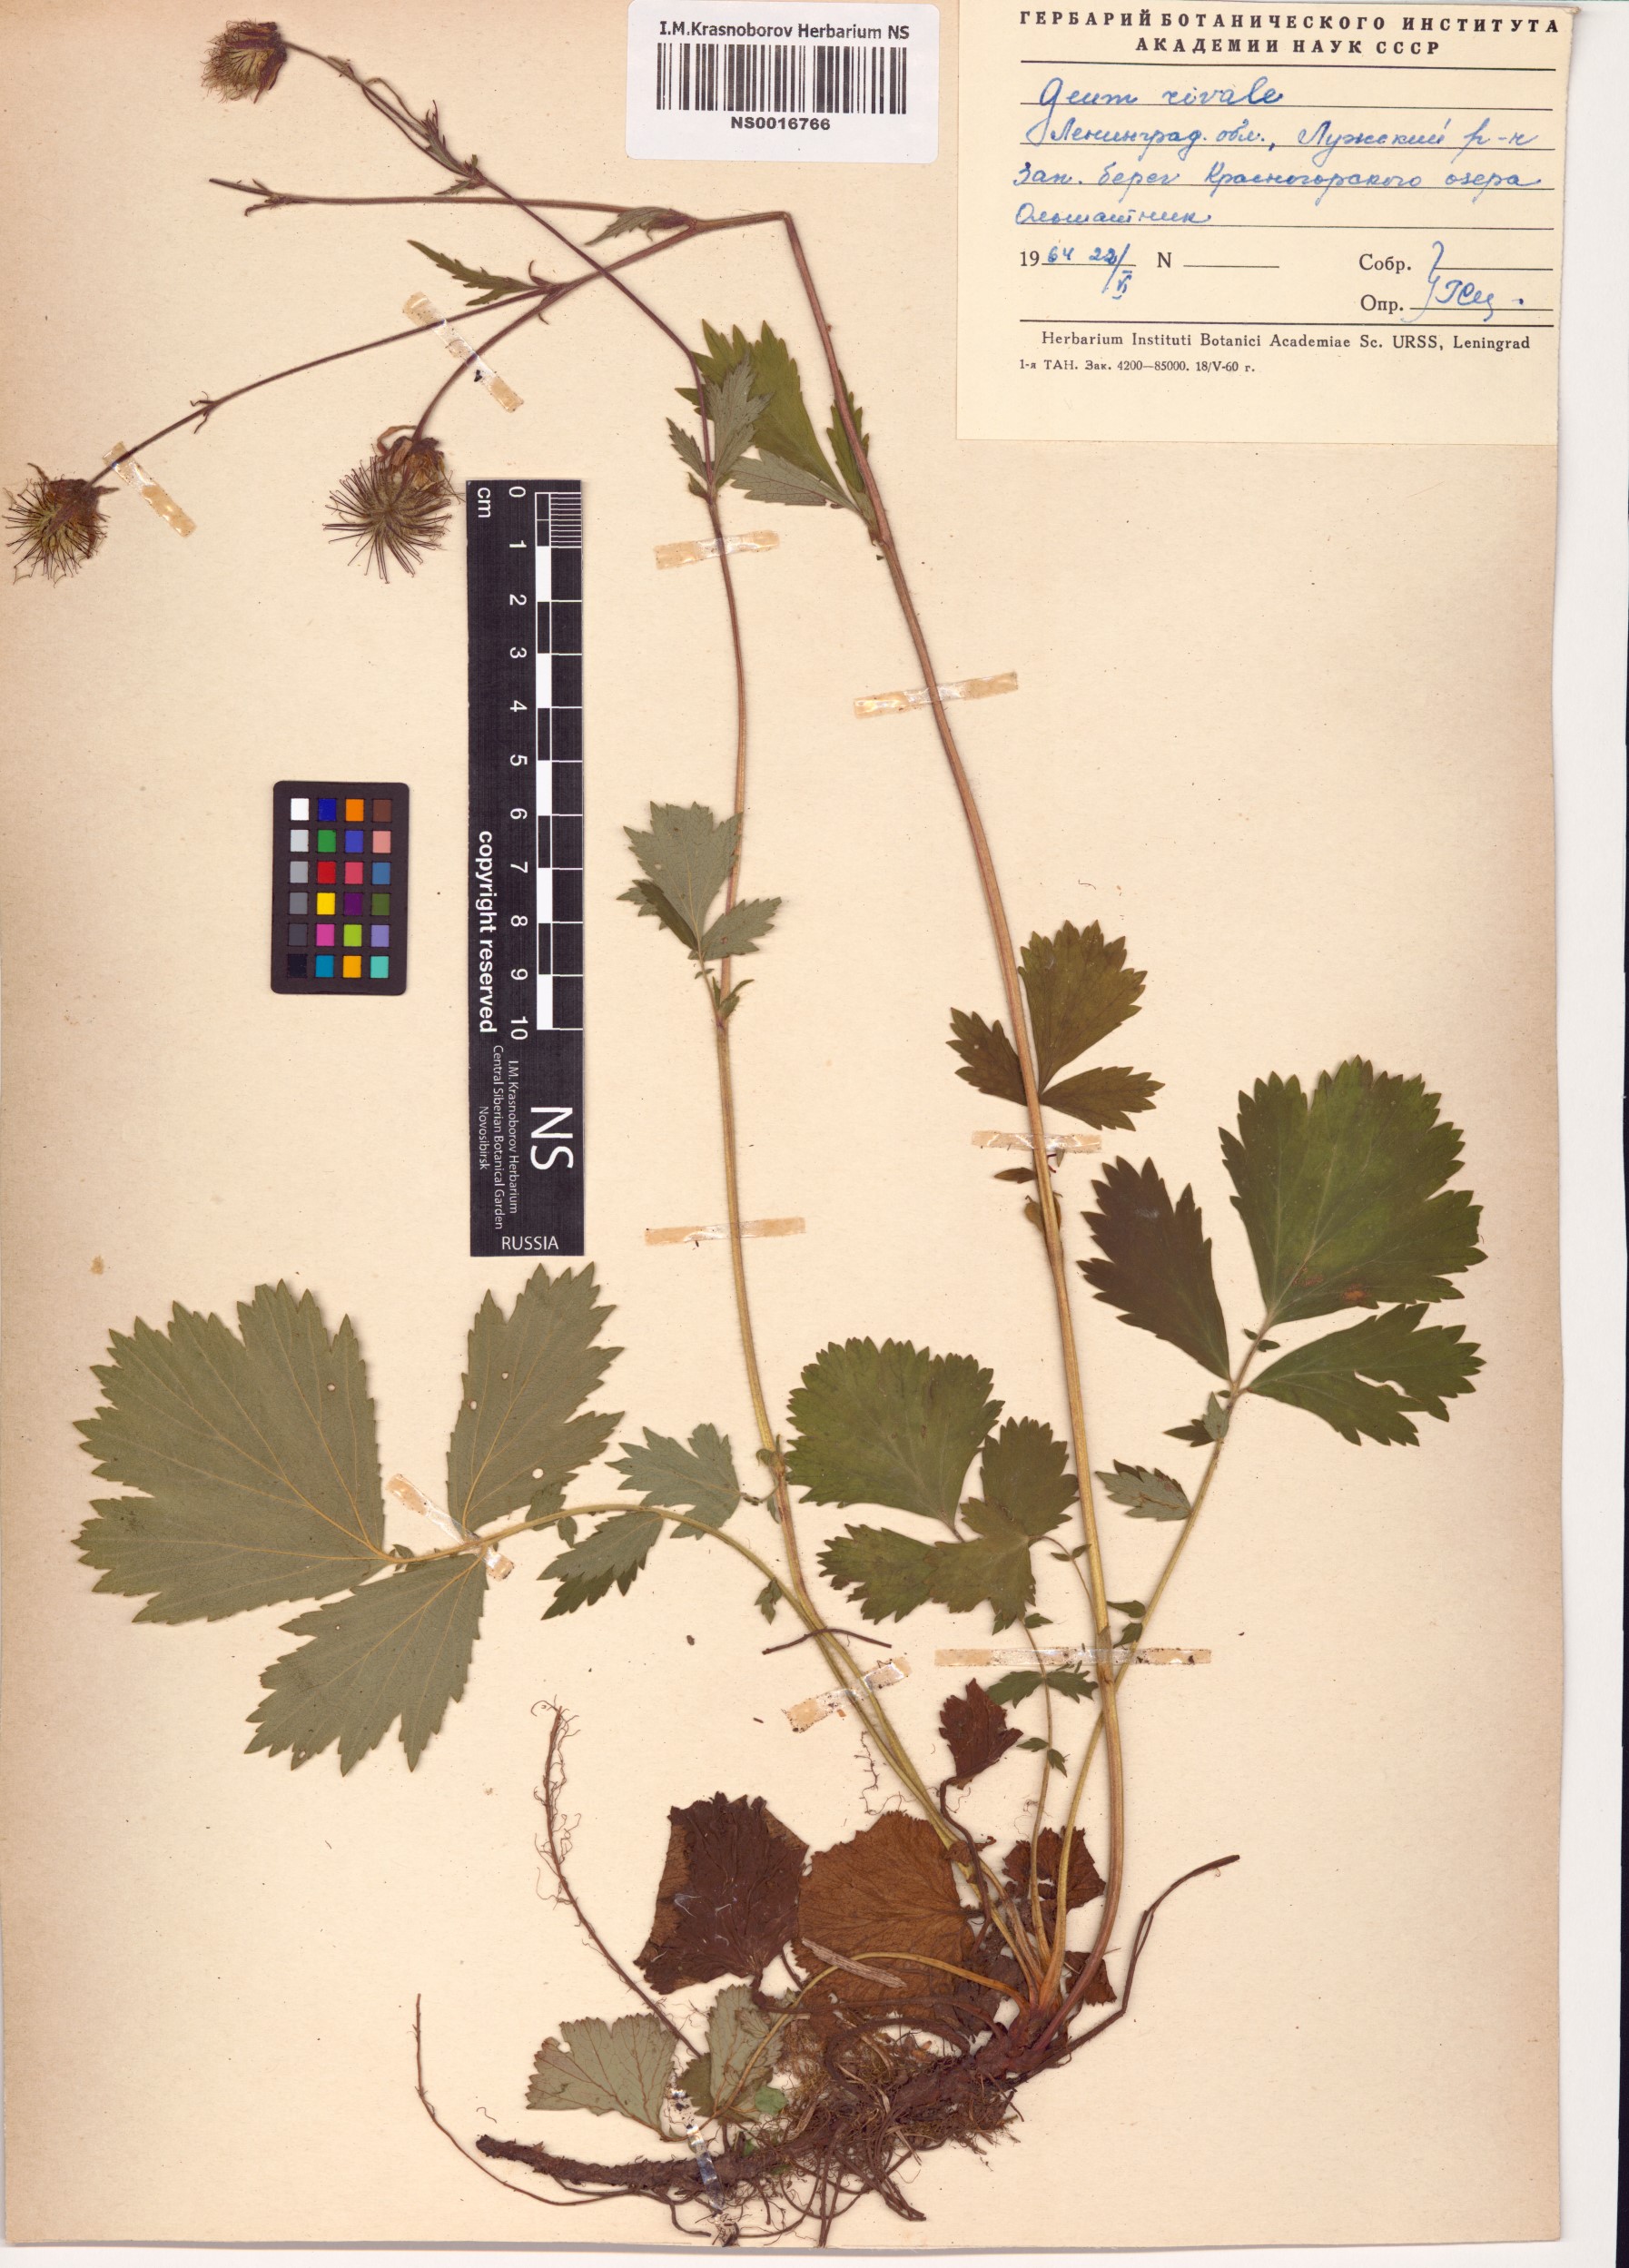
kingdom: Plantae
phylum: Tracheophyta
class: Magnoliopsida
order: Rosales
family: Rosaceae
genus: Geum
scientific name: Geum rivale
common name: Water avens
